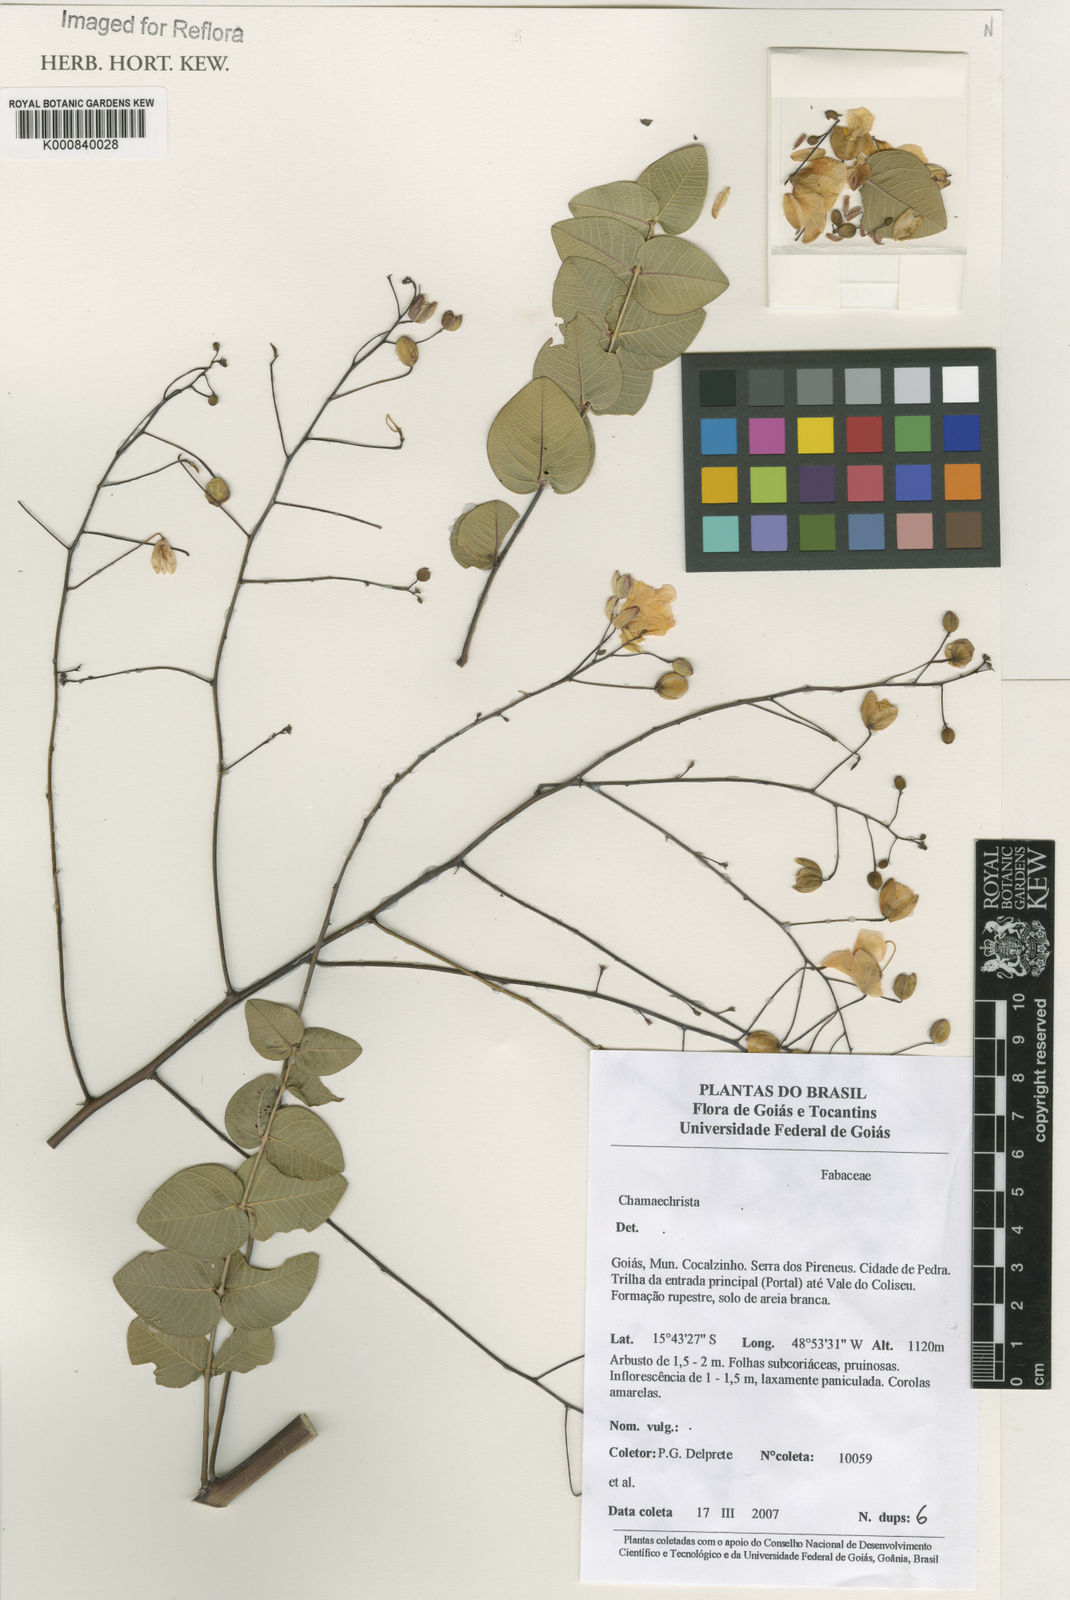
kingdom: Plantae
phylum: Tracheophyta
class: Magnoliopsida
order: Fabales
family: Fabaceae
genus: Chamaecrista
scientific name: Chamaecrista claussenii
